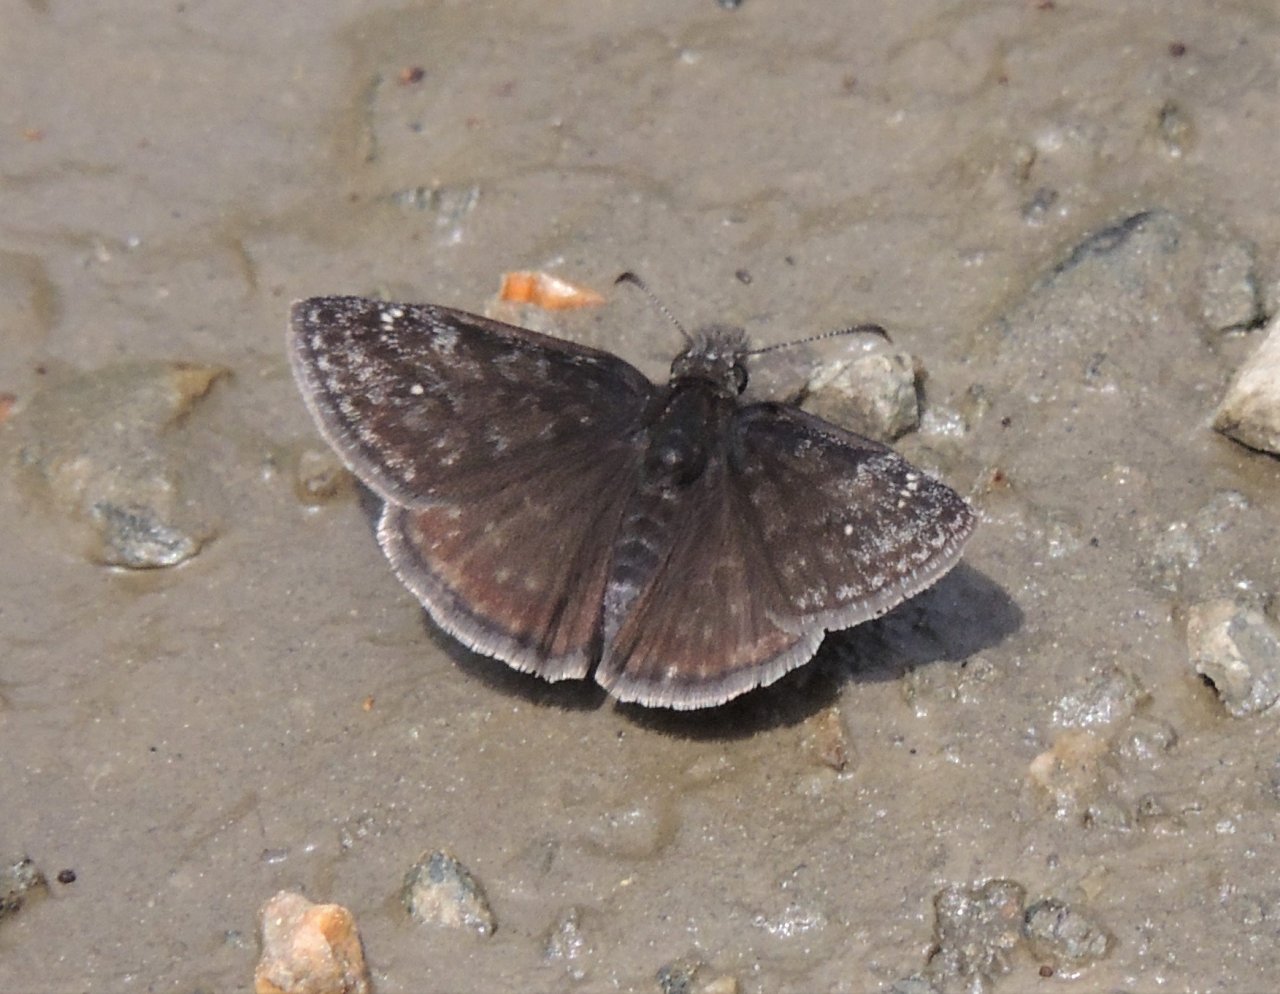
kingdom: Animalia
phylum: Arthropoda
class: Insecta
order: Lepidoptera
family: Hesperiidae
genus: Gesta
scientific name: Gesta
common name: Persius Duskywing
